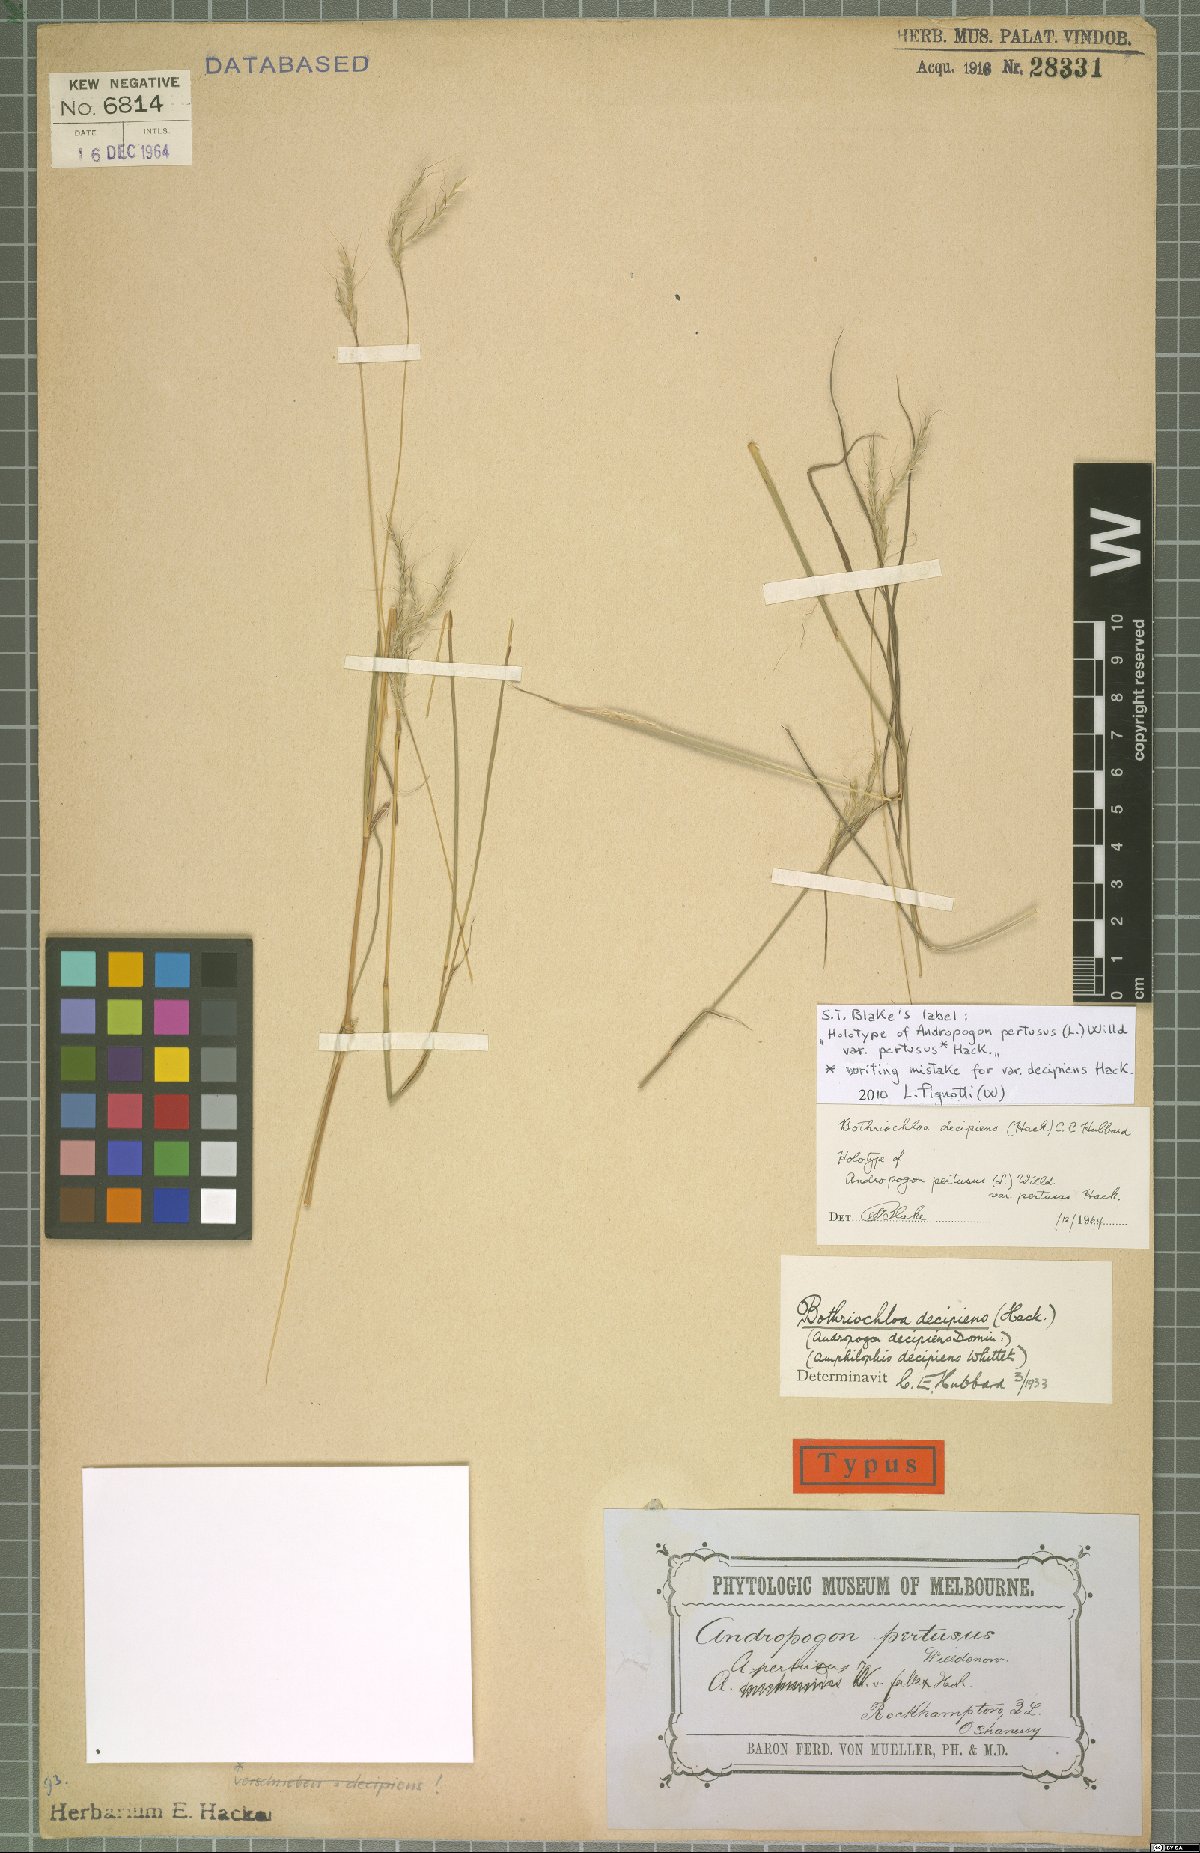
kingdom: Plantae
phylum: Tracheophyta
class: Liliopsida
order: Poales
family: Poaceae
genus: Bothriochloa
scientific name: Bothriochloa decipiens
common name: Pitted-bluegrass
